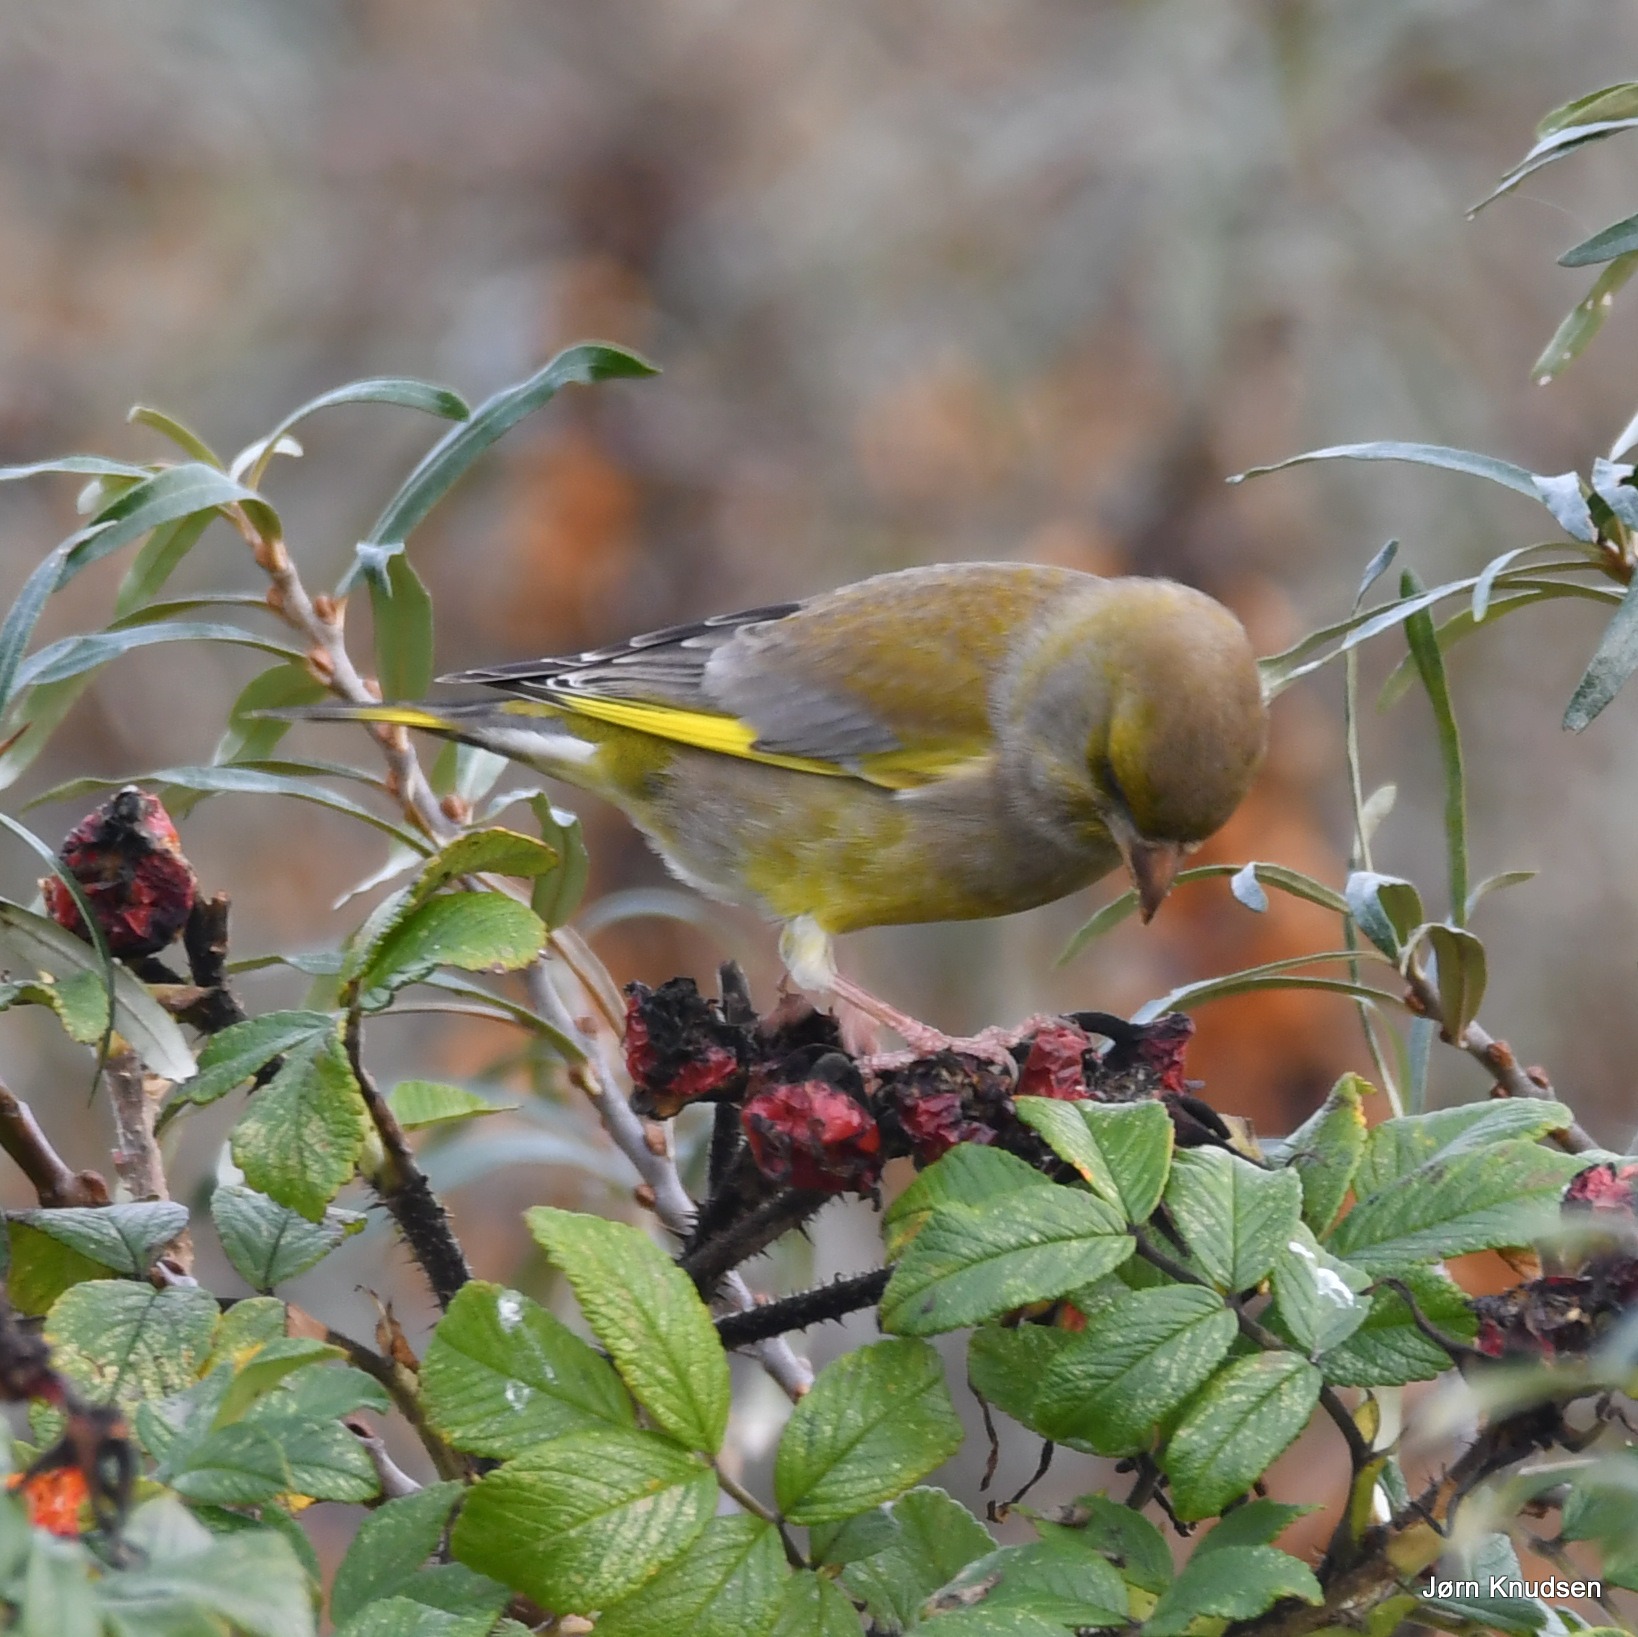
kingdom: Plantae
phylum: Tracheophyta
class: Liliopsida
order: Poales
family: Poaceae
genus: Chloris
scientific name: Chloris chloris
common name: Grønirisk
